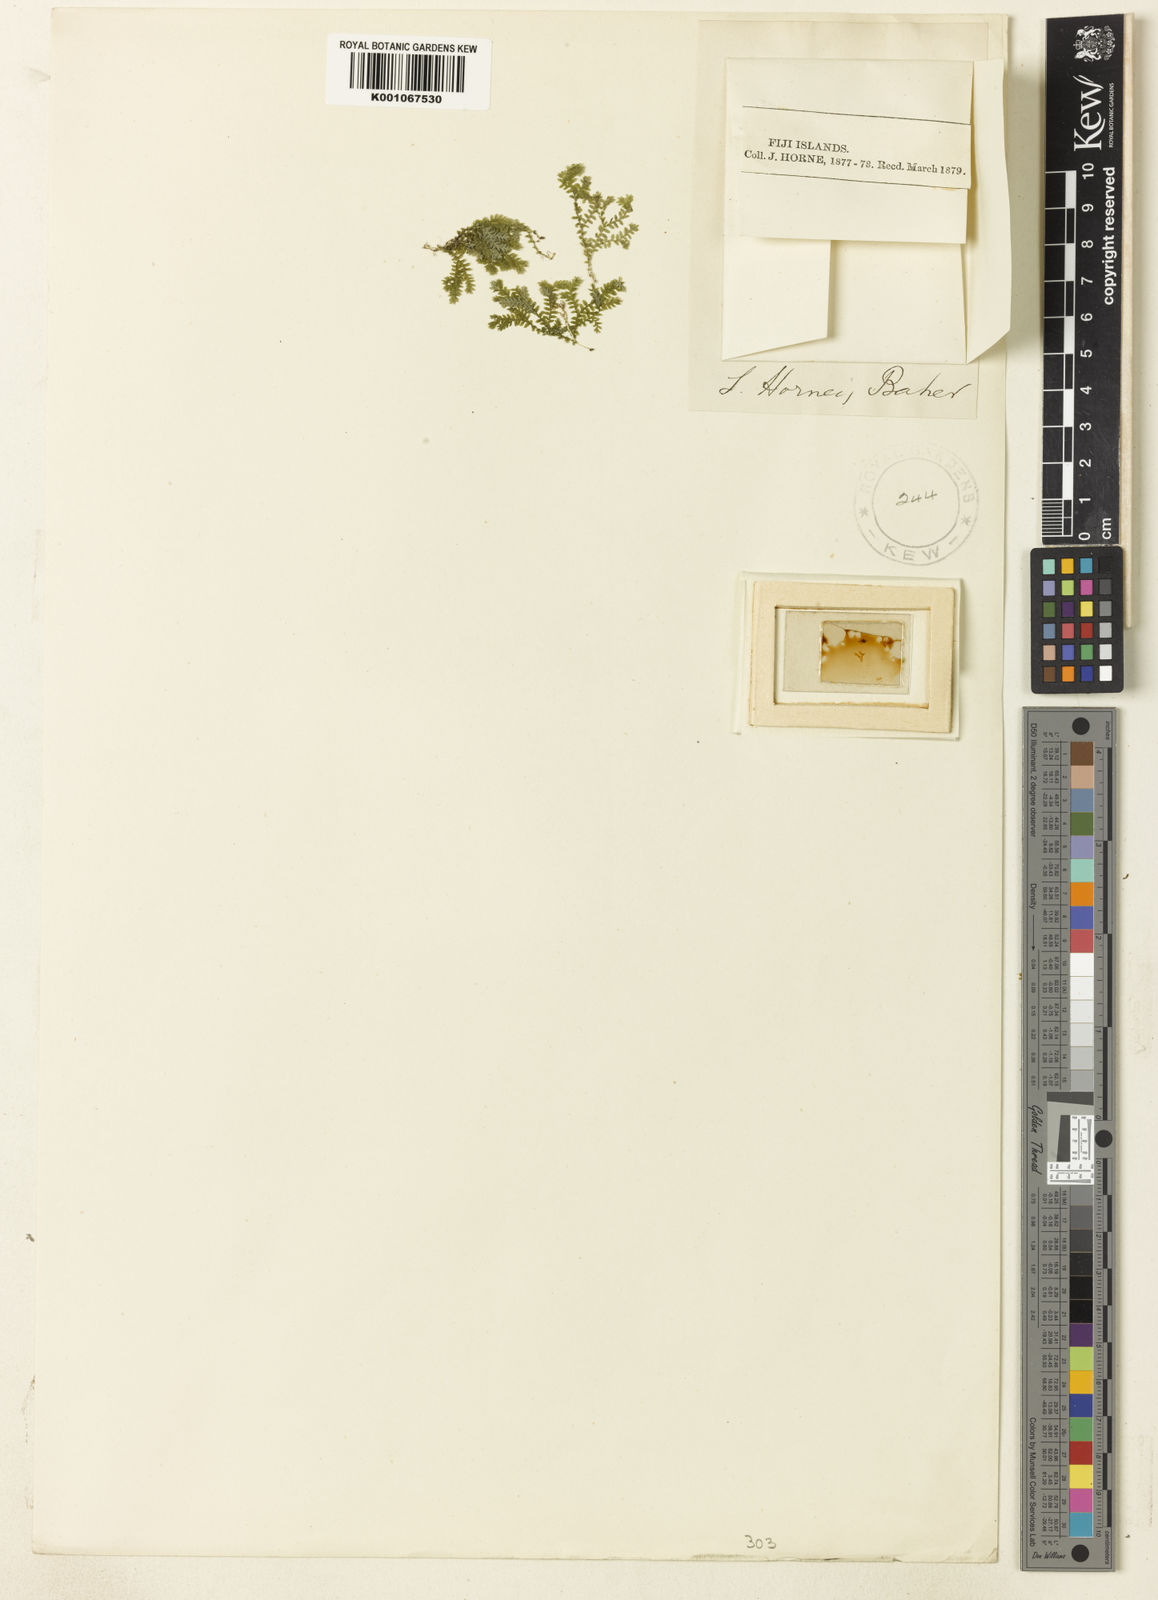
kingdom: Plantae
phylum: Tracheophyta
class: Lycopodiopsida
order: Selaginellales
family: Selaginellaceae
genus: Selaginella
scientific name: Selaginella
